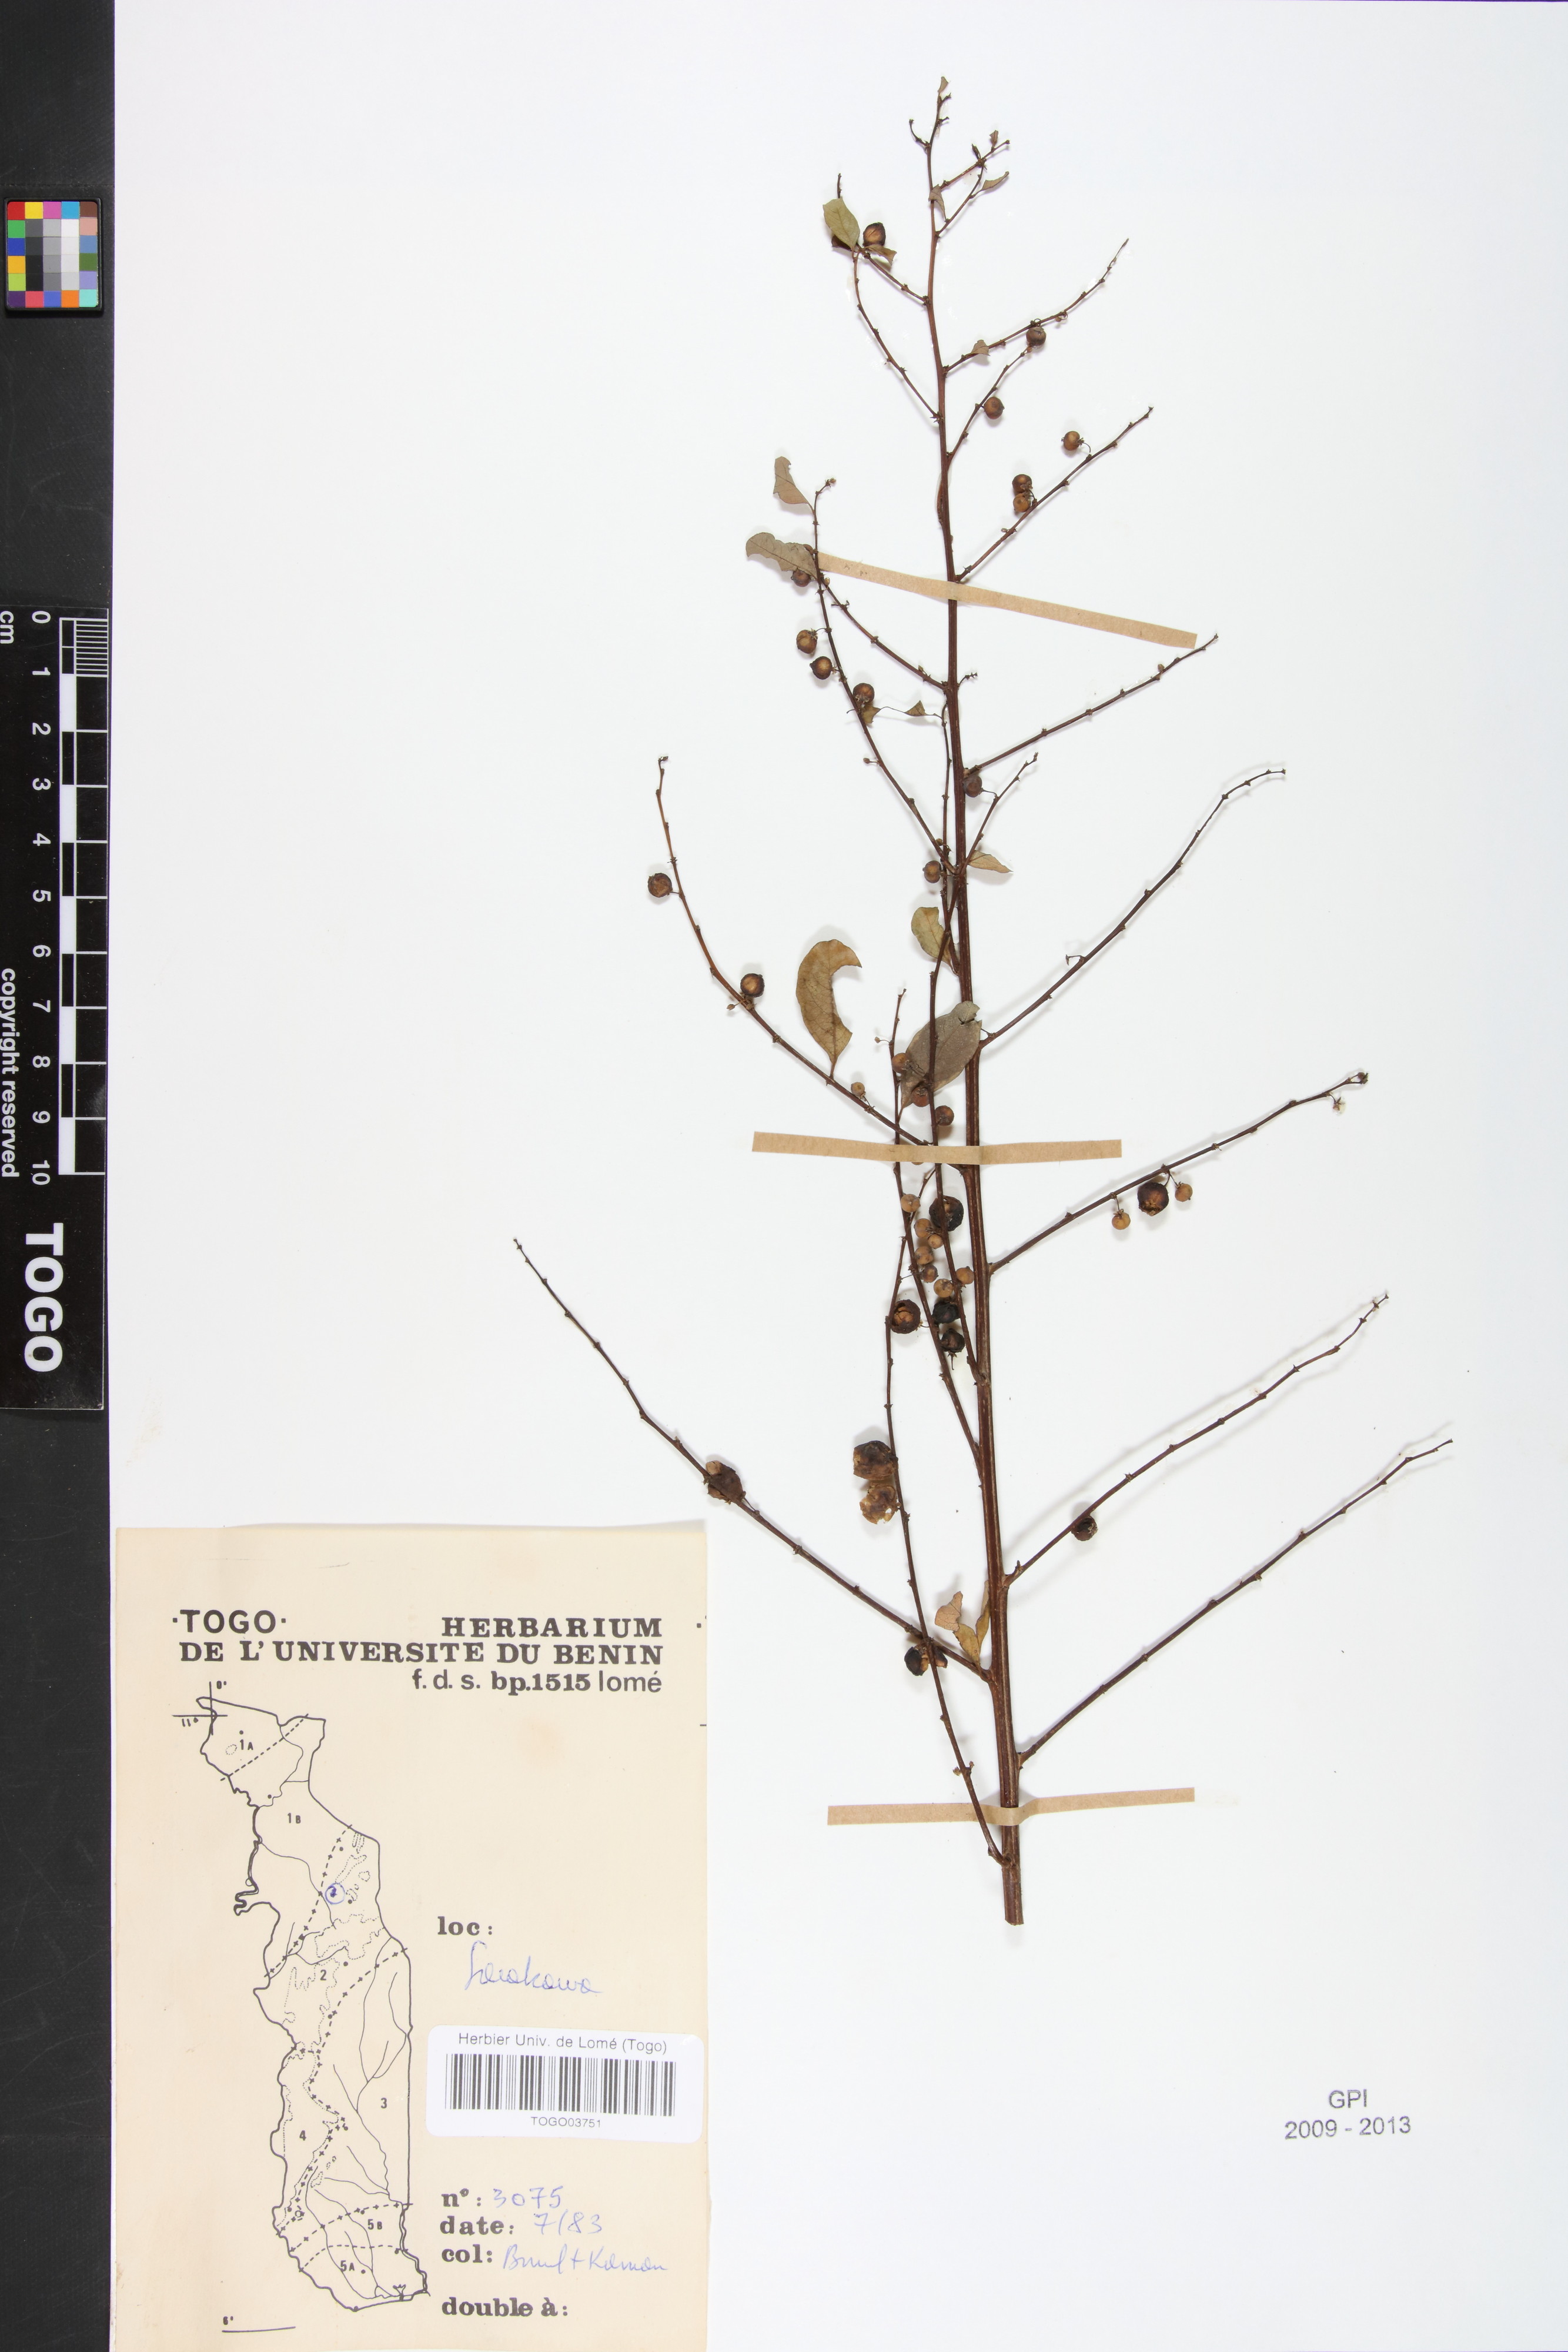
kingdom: Plantae
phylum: Tracheophyta
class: Magnoliopsida
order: Malpighiales
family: Phyllanthaceae
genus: Flueggea
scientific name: Flueggea virosa
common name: Common bushweed
